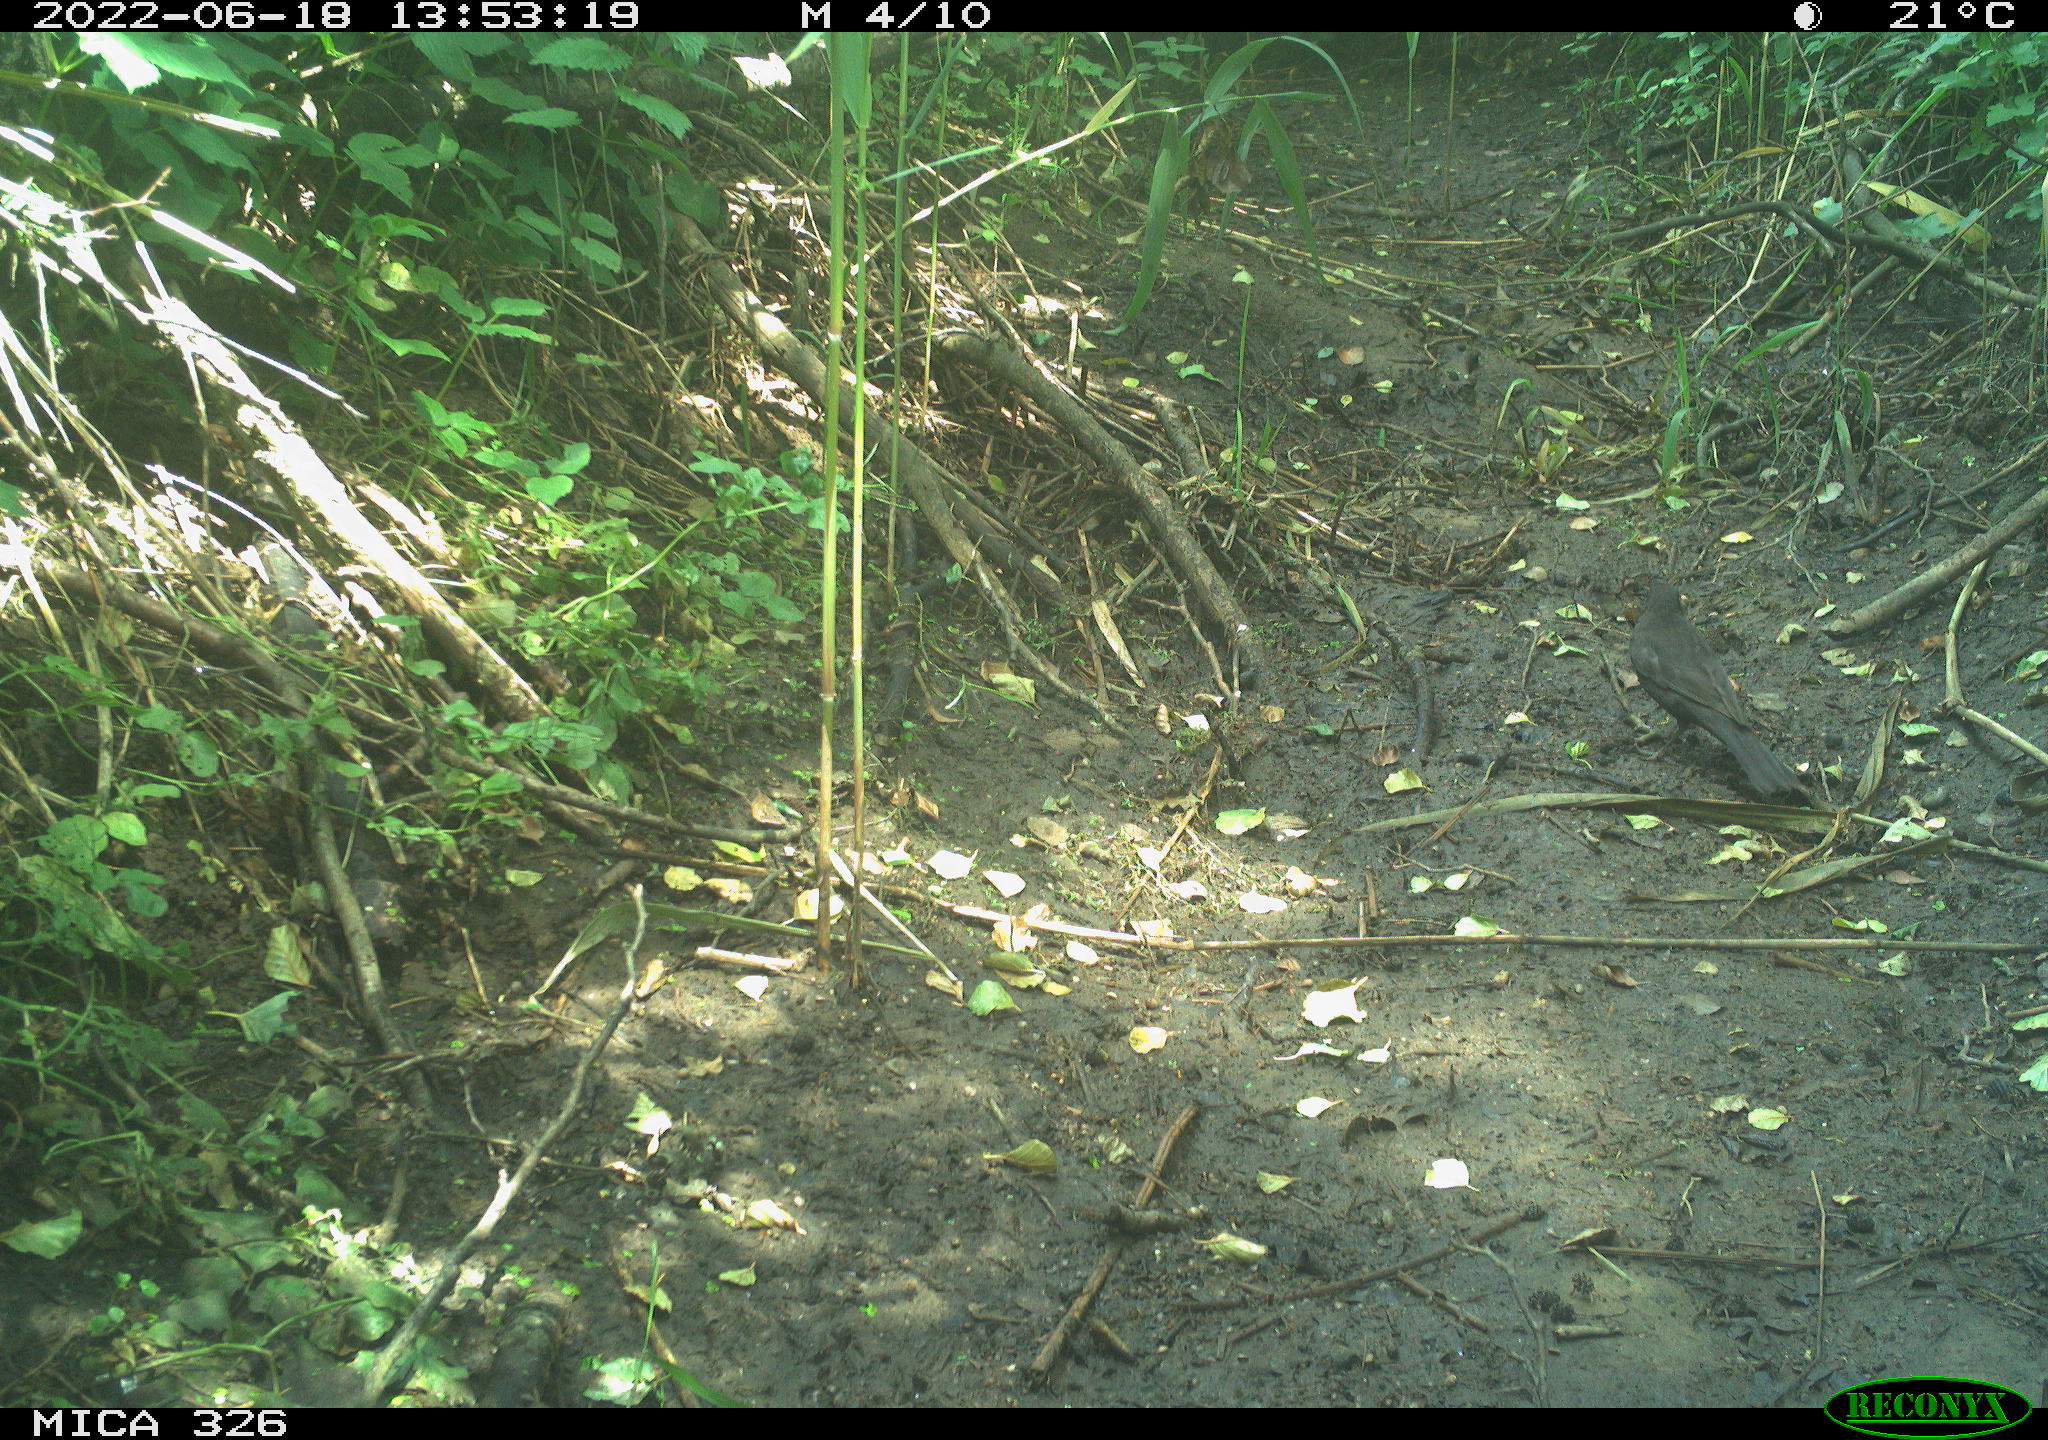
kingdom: Animalia
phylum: Chordata
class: Aves
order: Passeriformes
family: Turdidae
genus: Turdus
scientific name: Turdus merula
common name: Common blackbird
